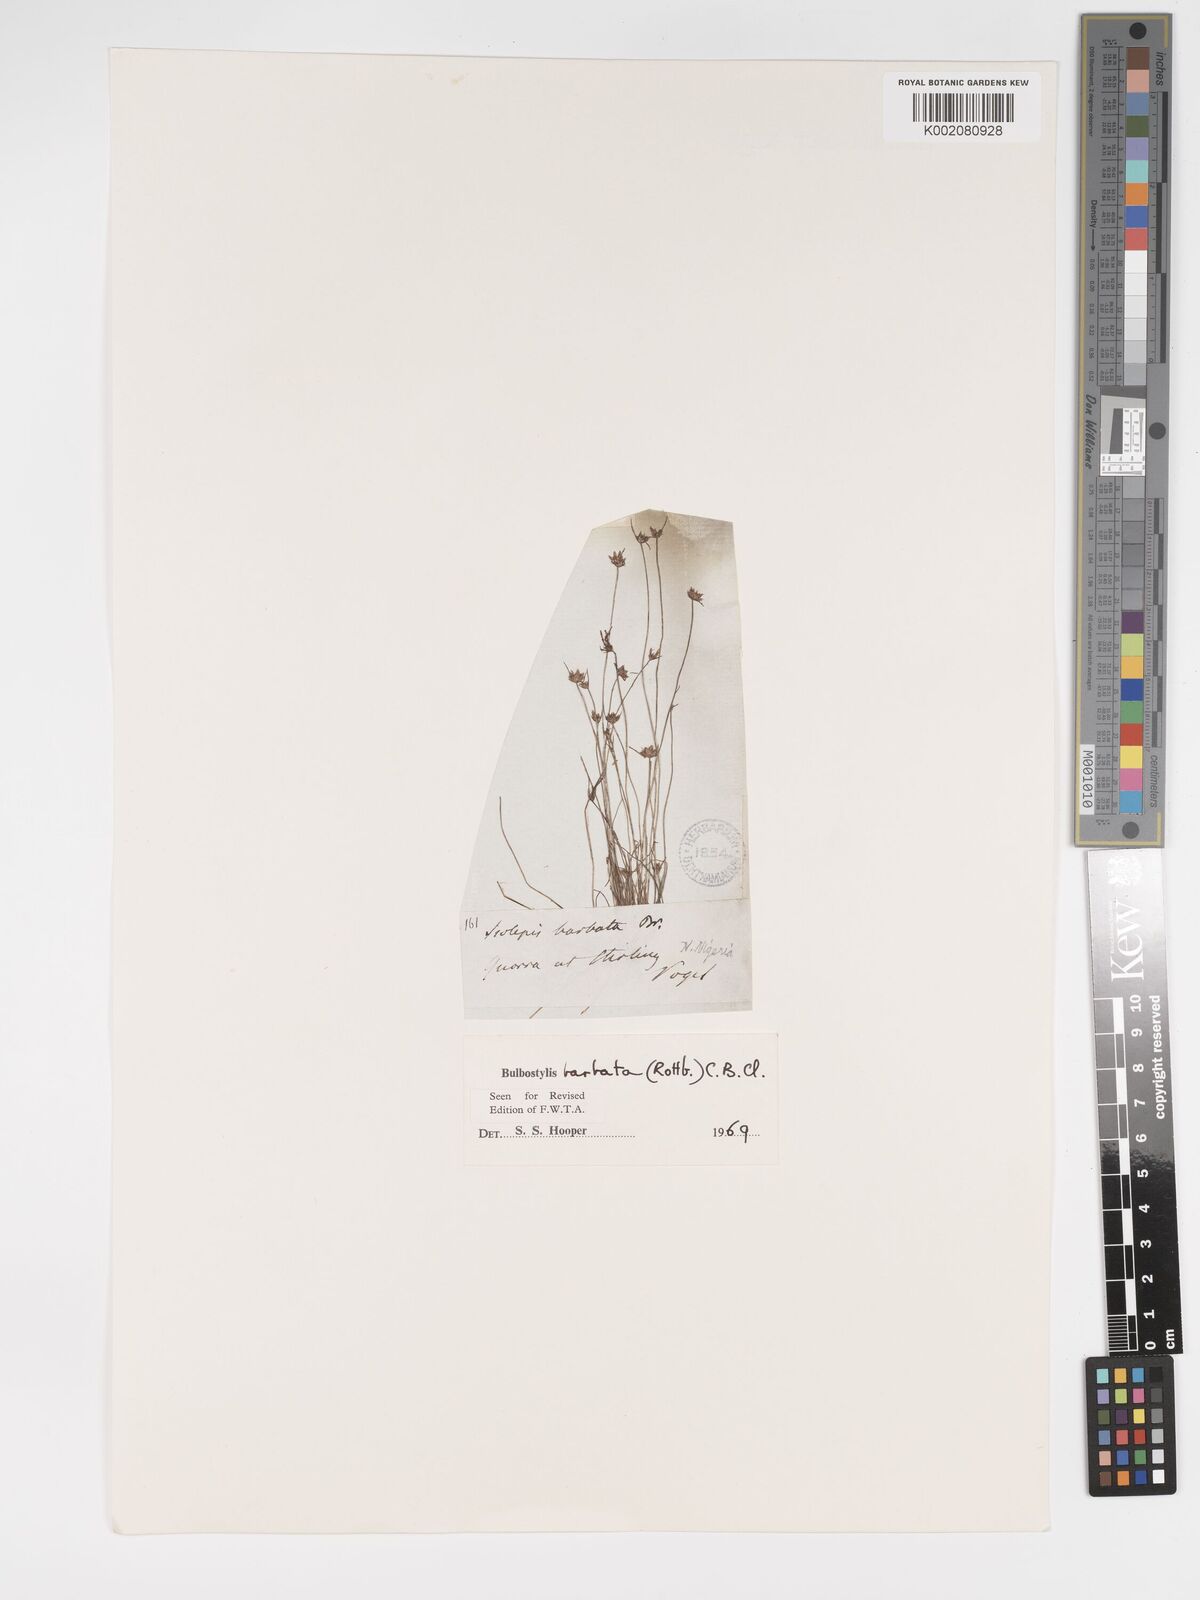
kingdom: Plantae
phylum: Tracheophyta
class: Liliopsida
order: Poales
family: Cyperaceae
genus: Bulbostylis
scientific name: Bulbostylis barbata
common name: Watergrass
